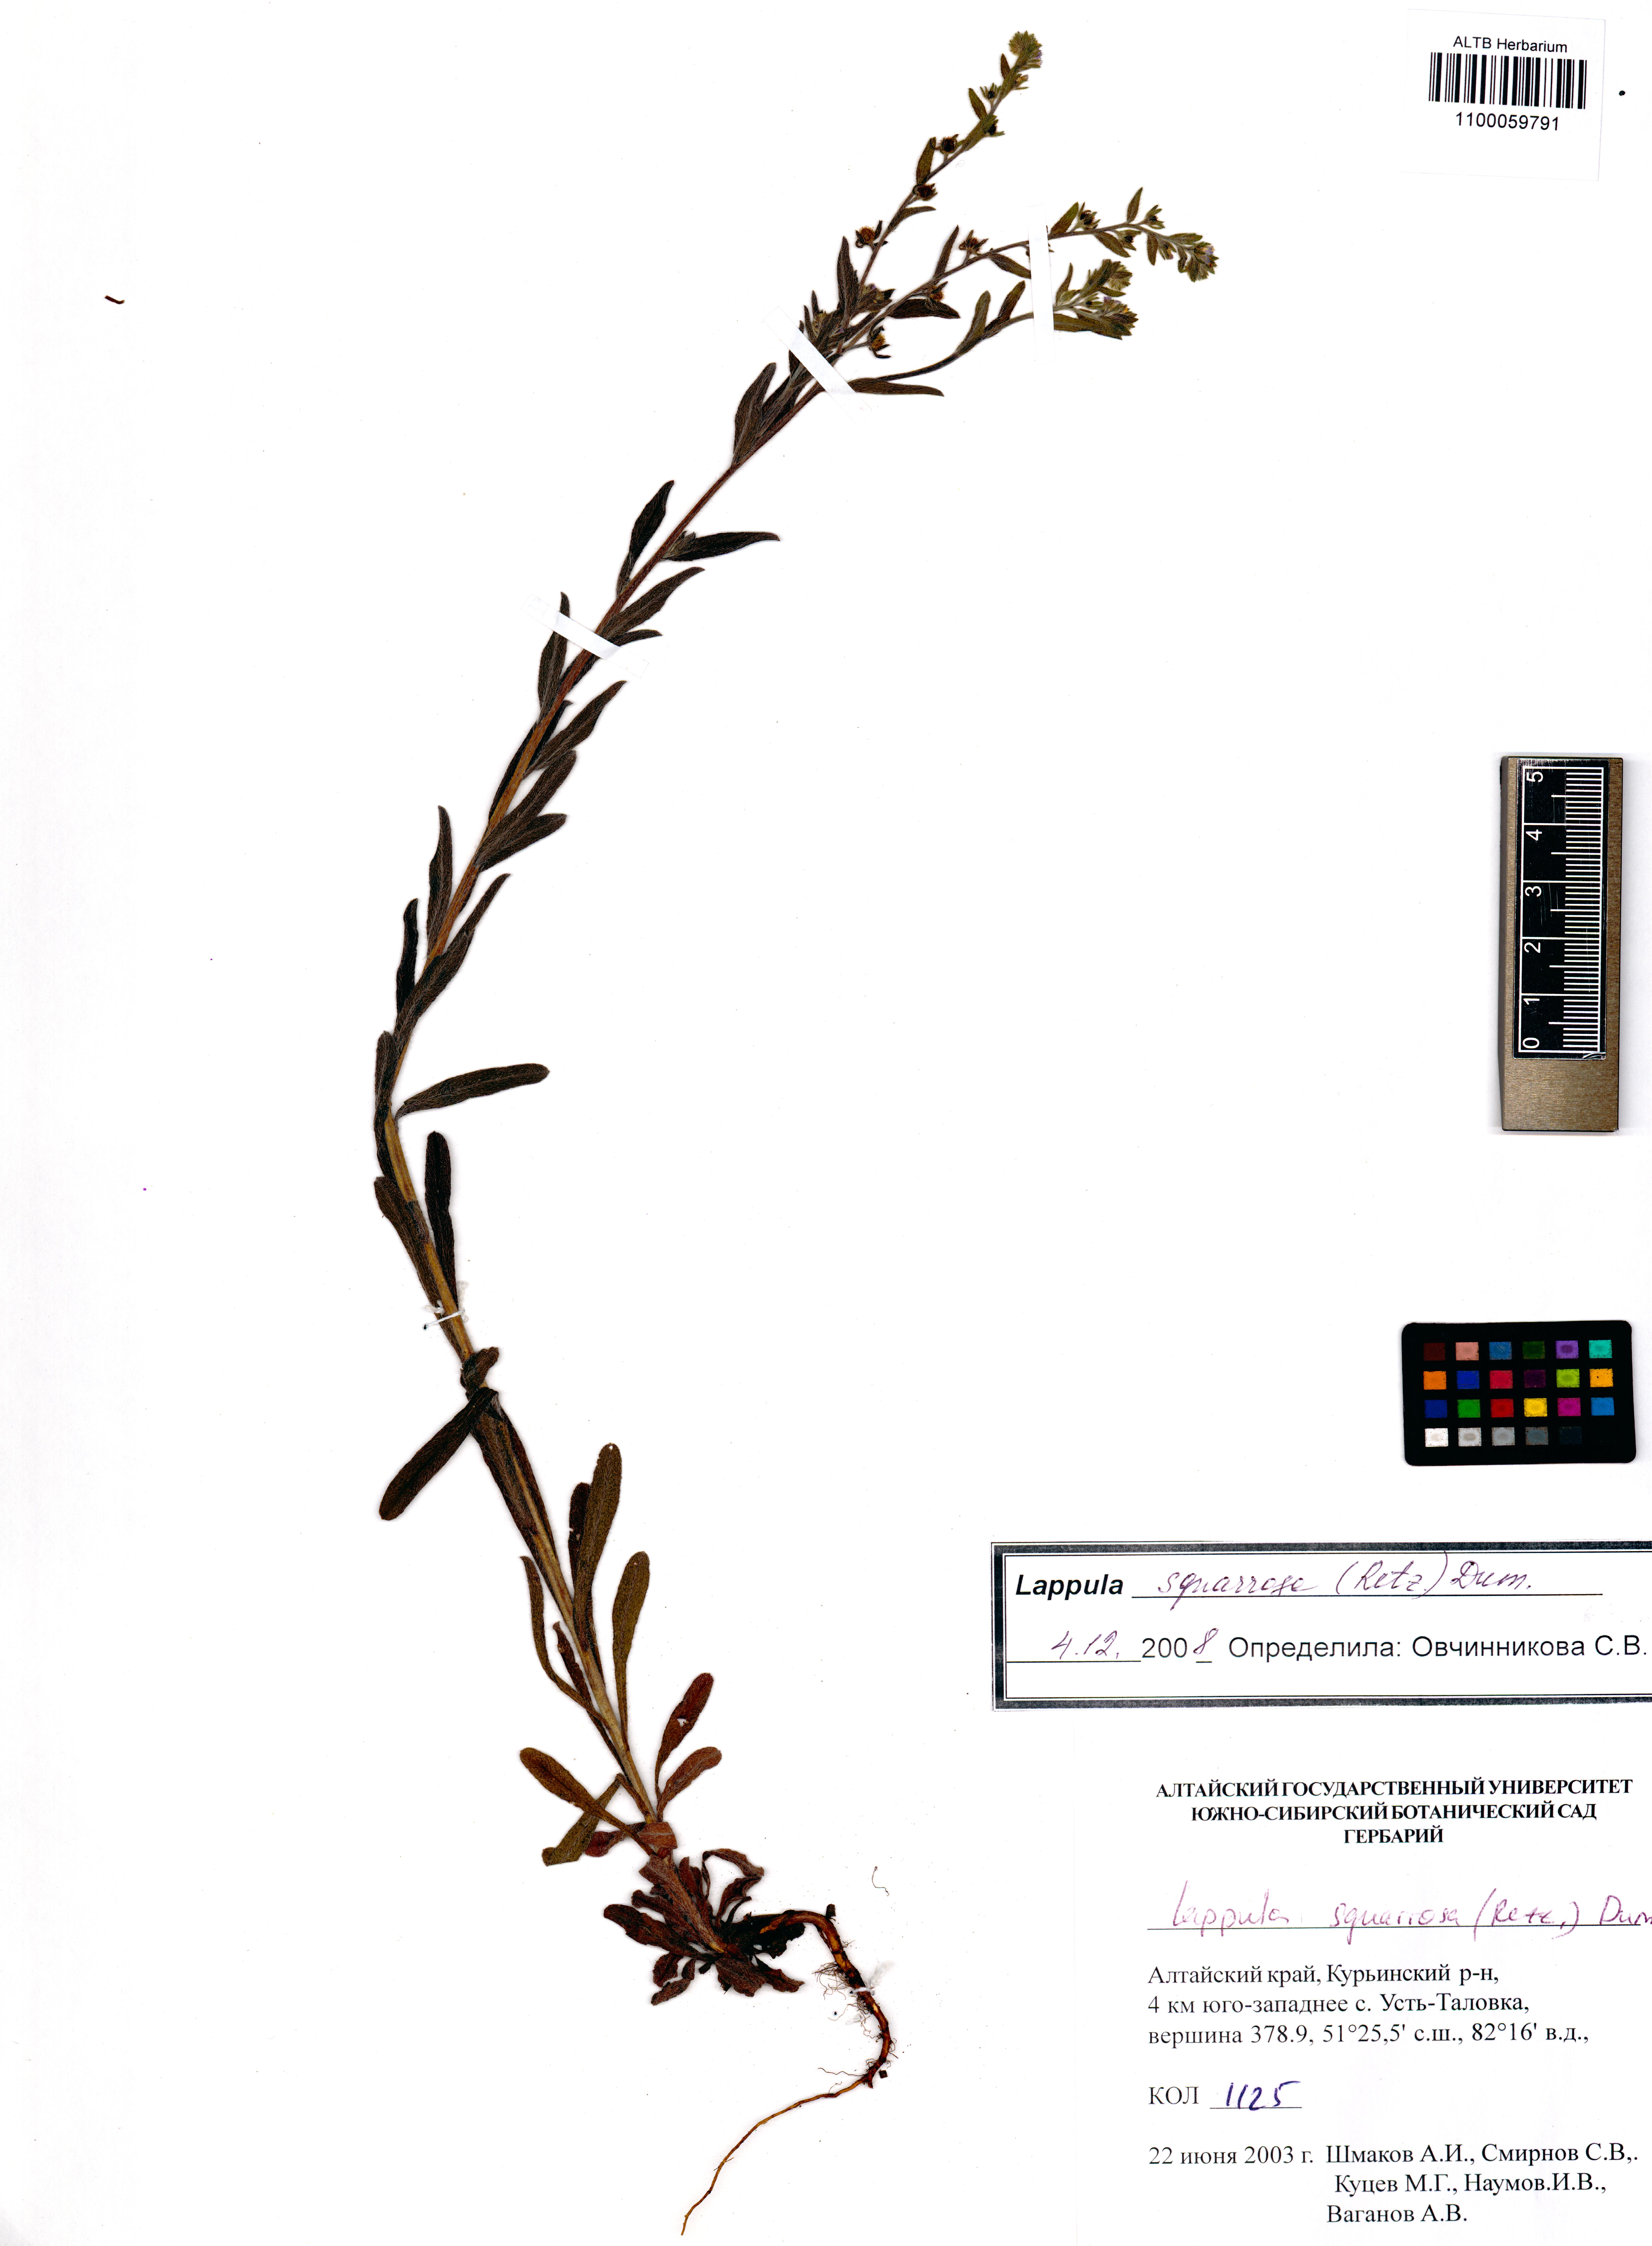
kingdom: Plantae
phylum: Tracheophyta
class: Magnoliopsida
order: Boraginales
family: Boraginaceae
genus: Lappula
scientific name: Lappula squarrosa
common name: European stickseed
